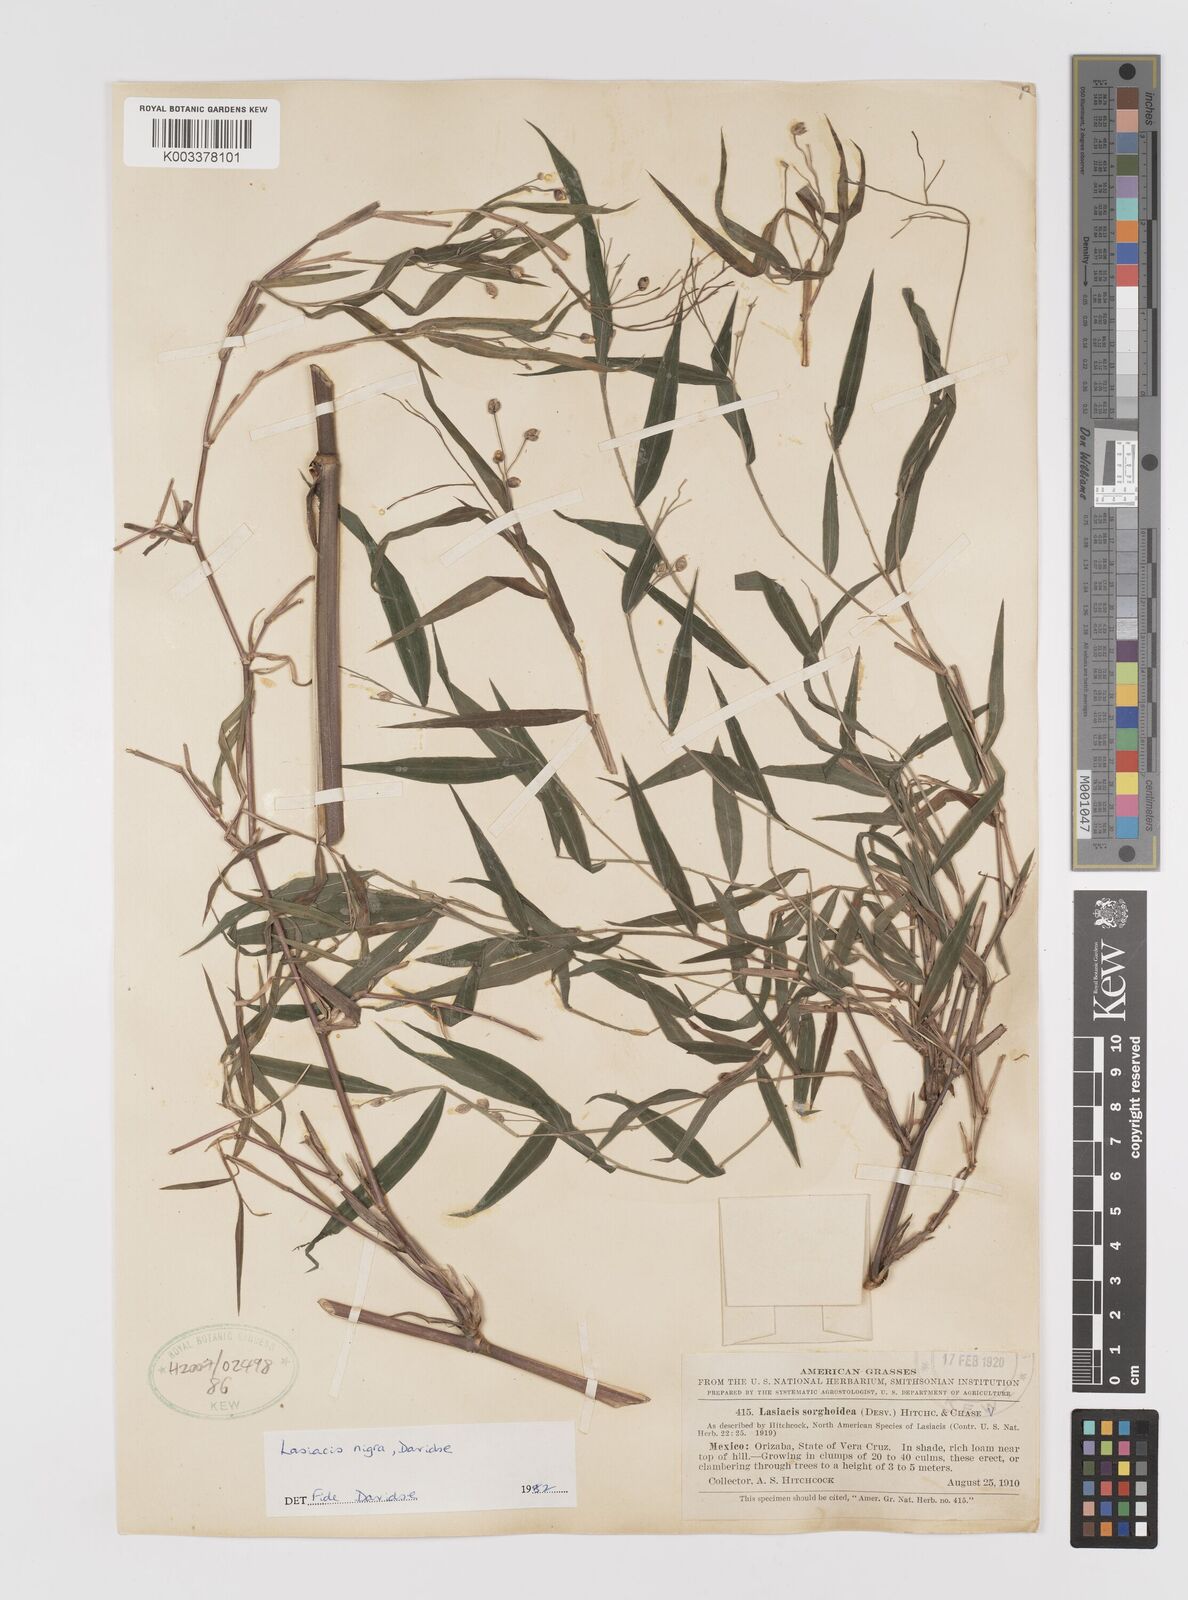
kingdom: Plantae
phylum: Tracheophyta
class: Liliopsida
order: Poales
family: Poaceae
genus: Lasiacis
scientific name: Lasiacis nigra
